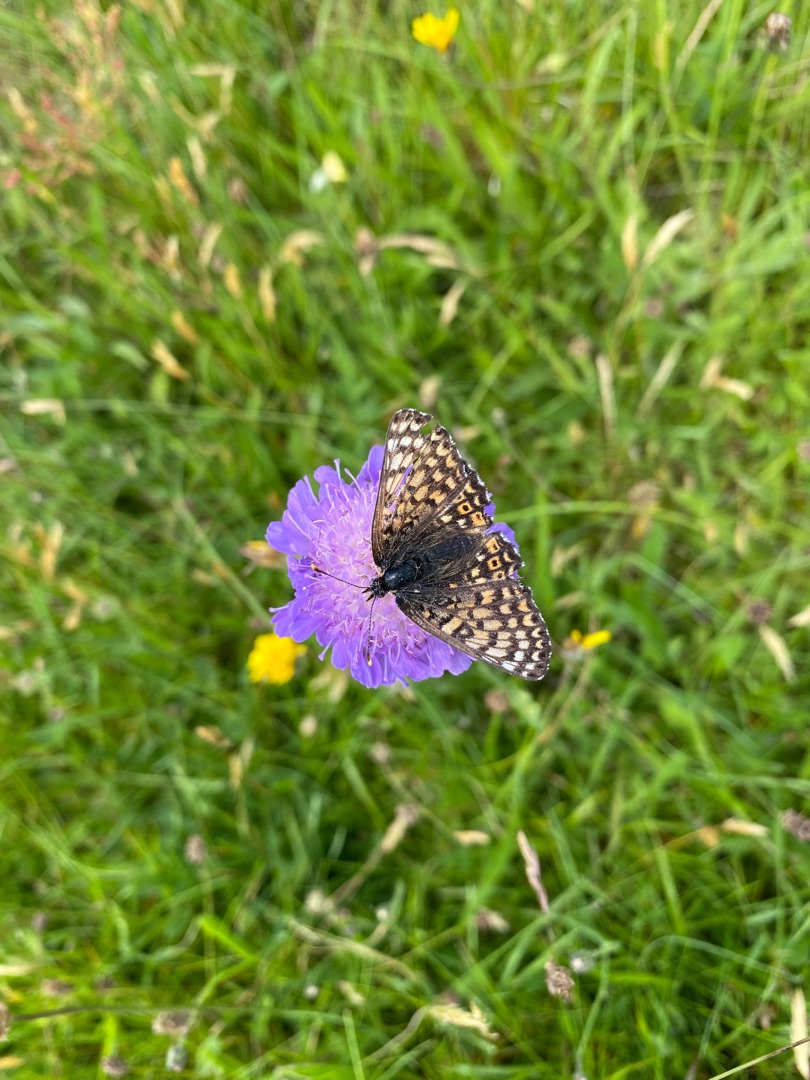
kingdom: Animalia
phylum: Arthropoda
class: Insecta
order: Lepidoptera
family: Nymphalidae
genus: Melitaea
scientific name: Melitaea cinxia
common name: Okkergul pletvinge
